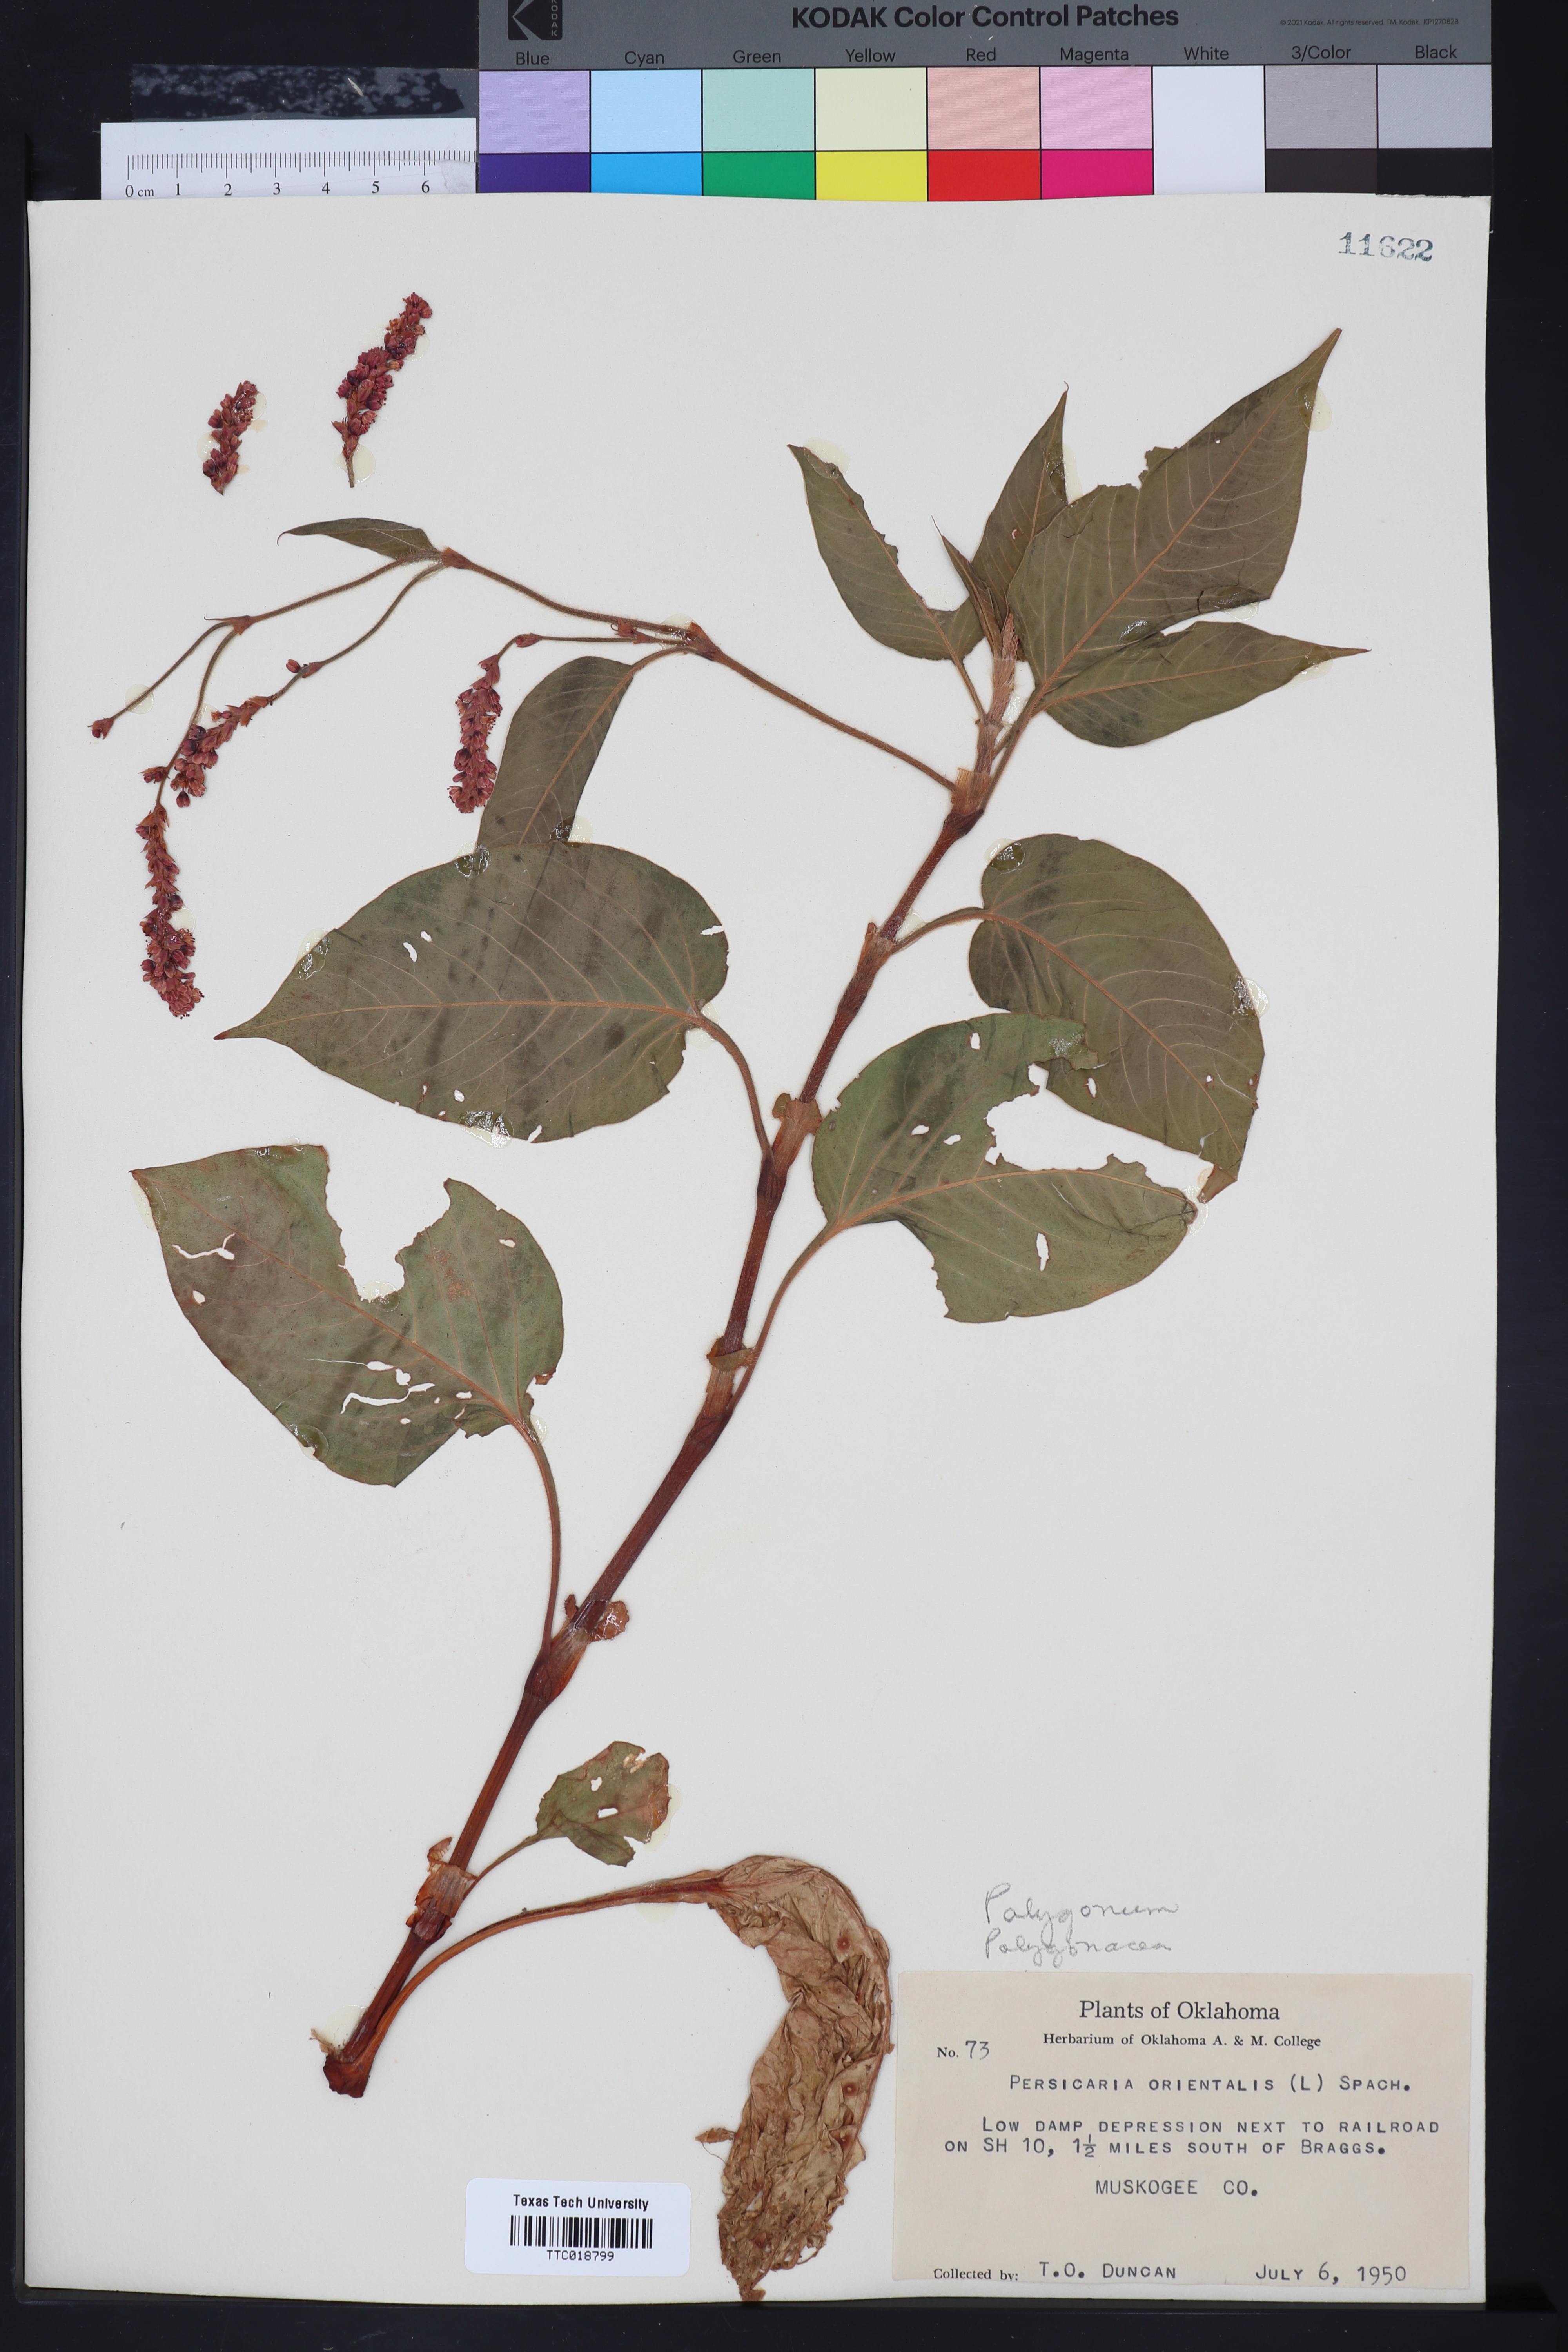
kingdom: Plantae
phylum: Tracheophyta
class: Magnoliopsida
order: Caryophyllales
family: Polygonaceae
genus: Polygonum
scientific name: Polygonum
